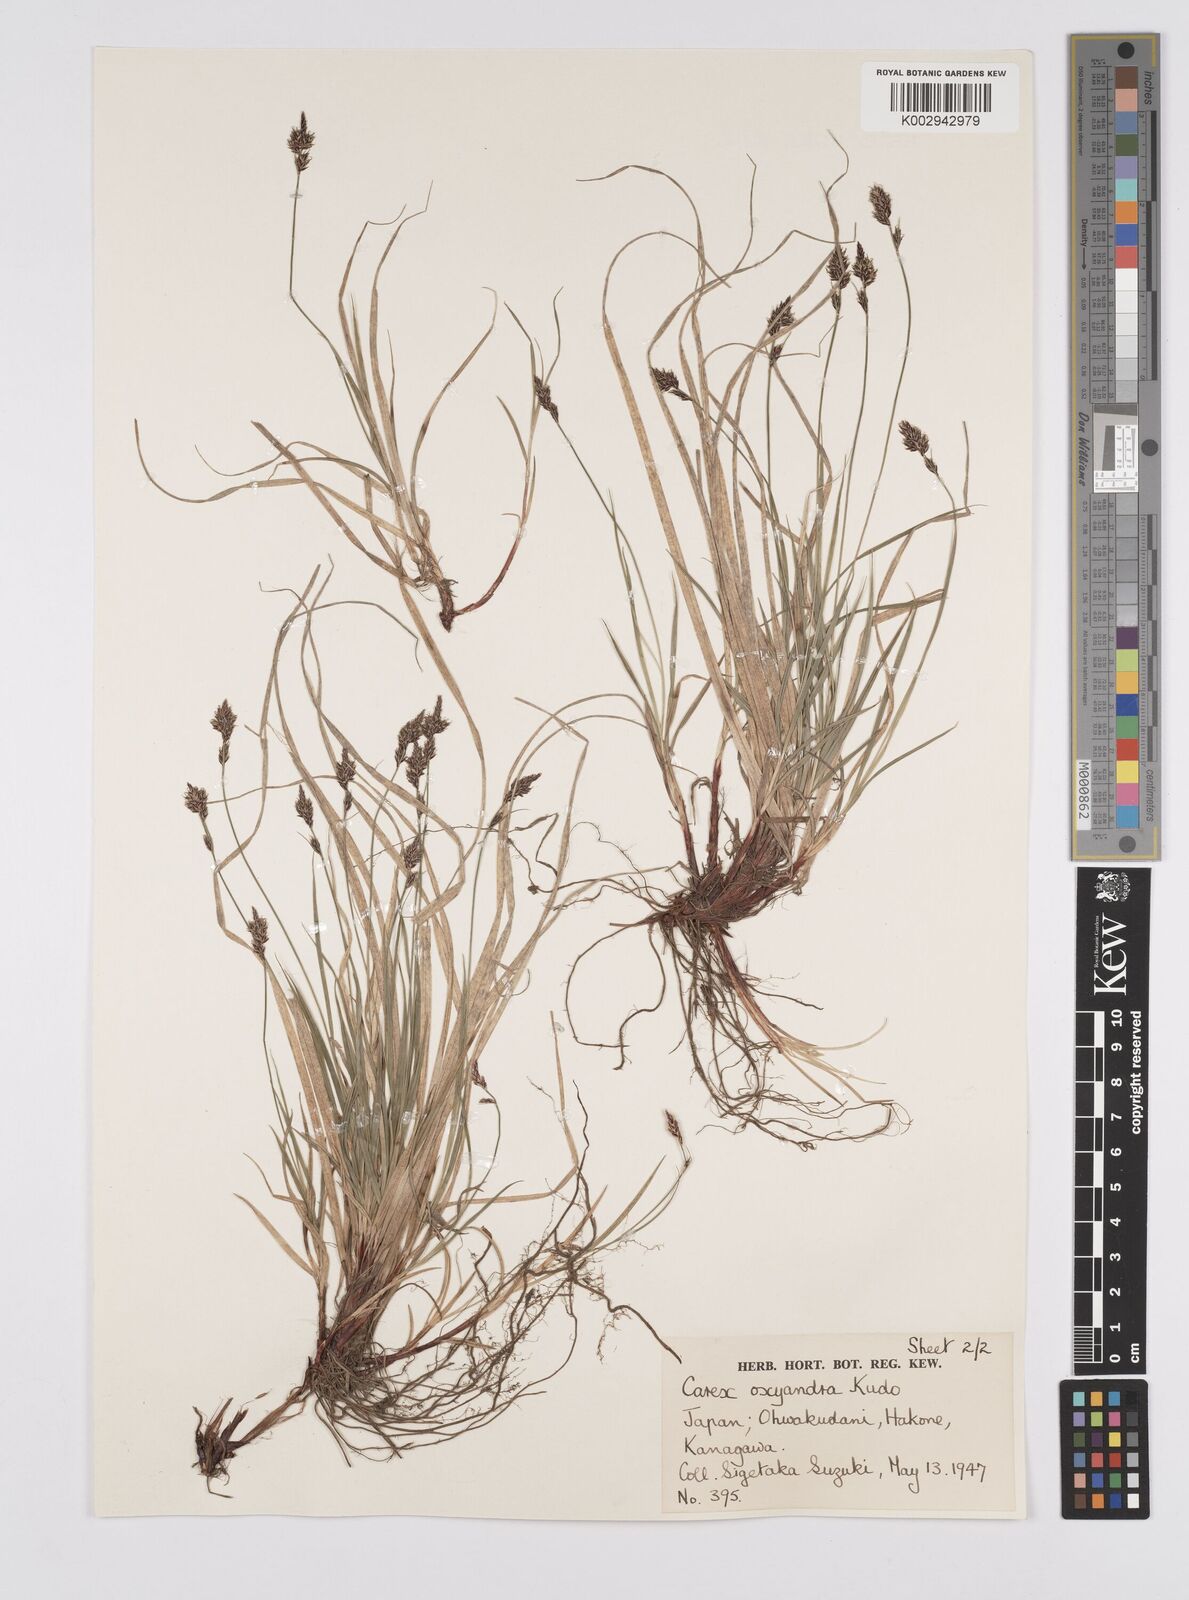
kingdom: Plantae
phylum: Tracheophyta
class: Liliopsida
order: Poales
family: Cyperaceae
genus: Carex
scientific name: Carex oxyandra
